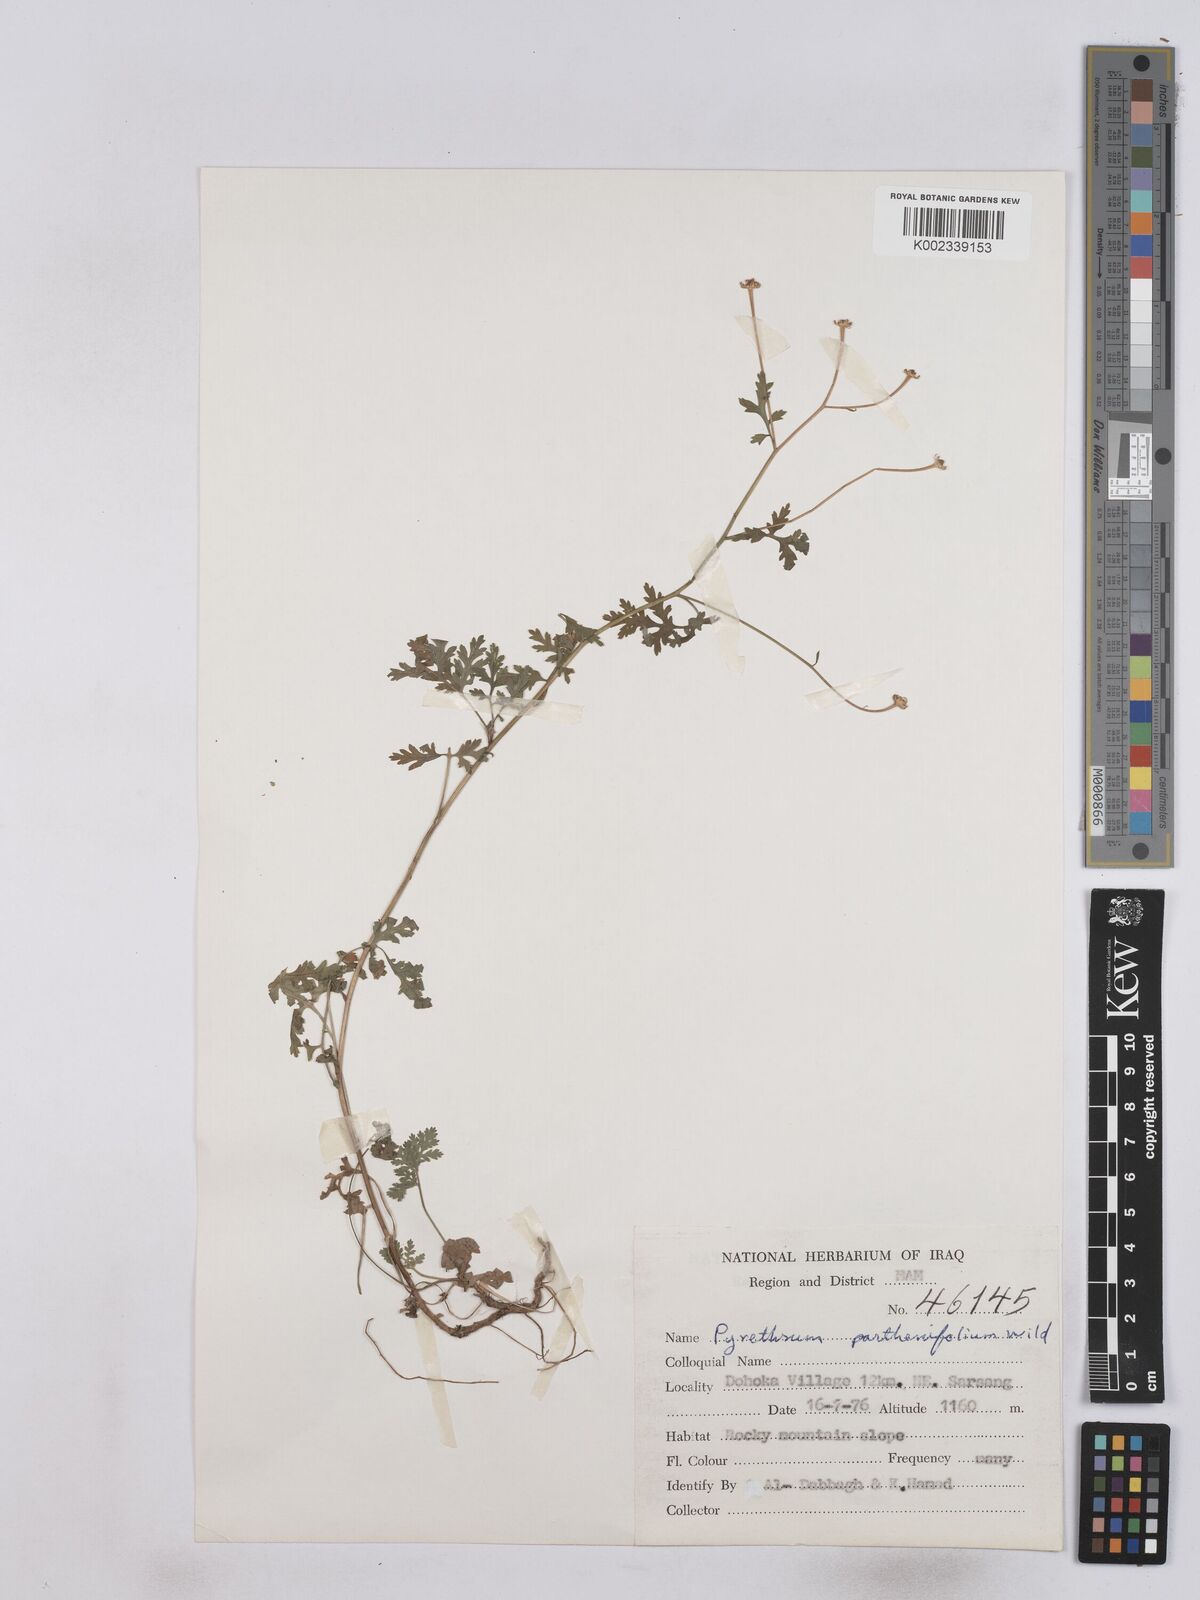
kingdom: Plantae
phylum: Tracheophyta
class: Magnoliopsida
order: Asterales
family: Asteraceae
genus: Tanacetum
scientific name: Tanacetum partheniifolium
